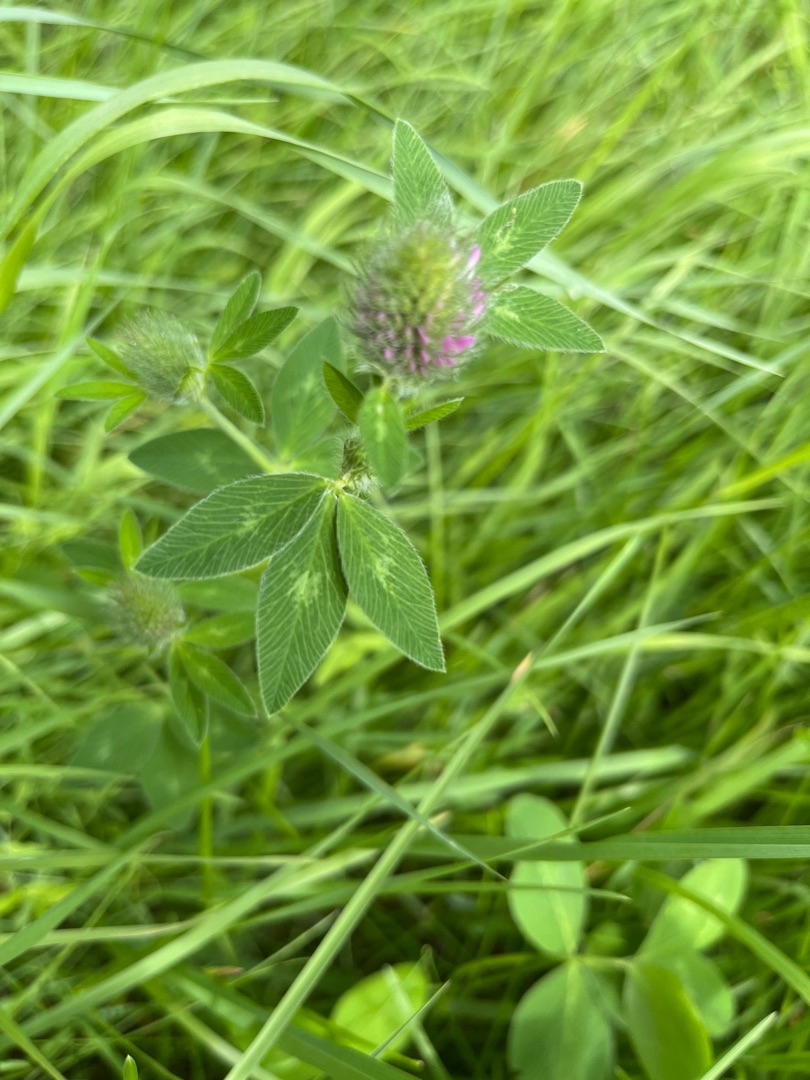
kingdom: Plantae
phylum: Tracheophyta
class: Magnoliopsida
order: Fabales
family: Fabaceae
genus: Trifolium
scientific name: Trifolium pratense
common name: Rød-kløver
